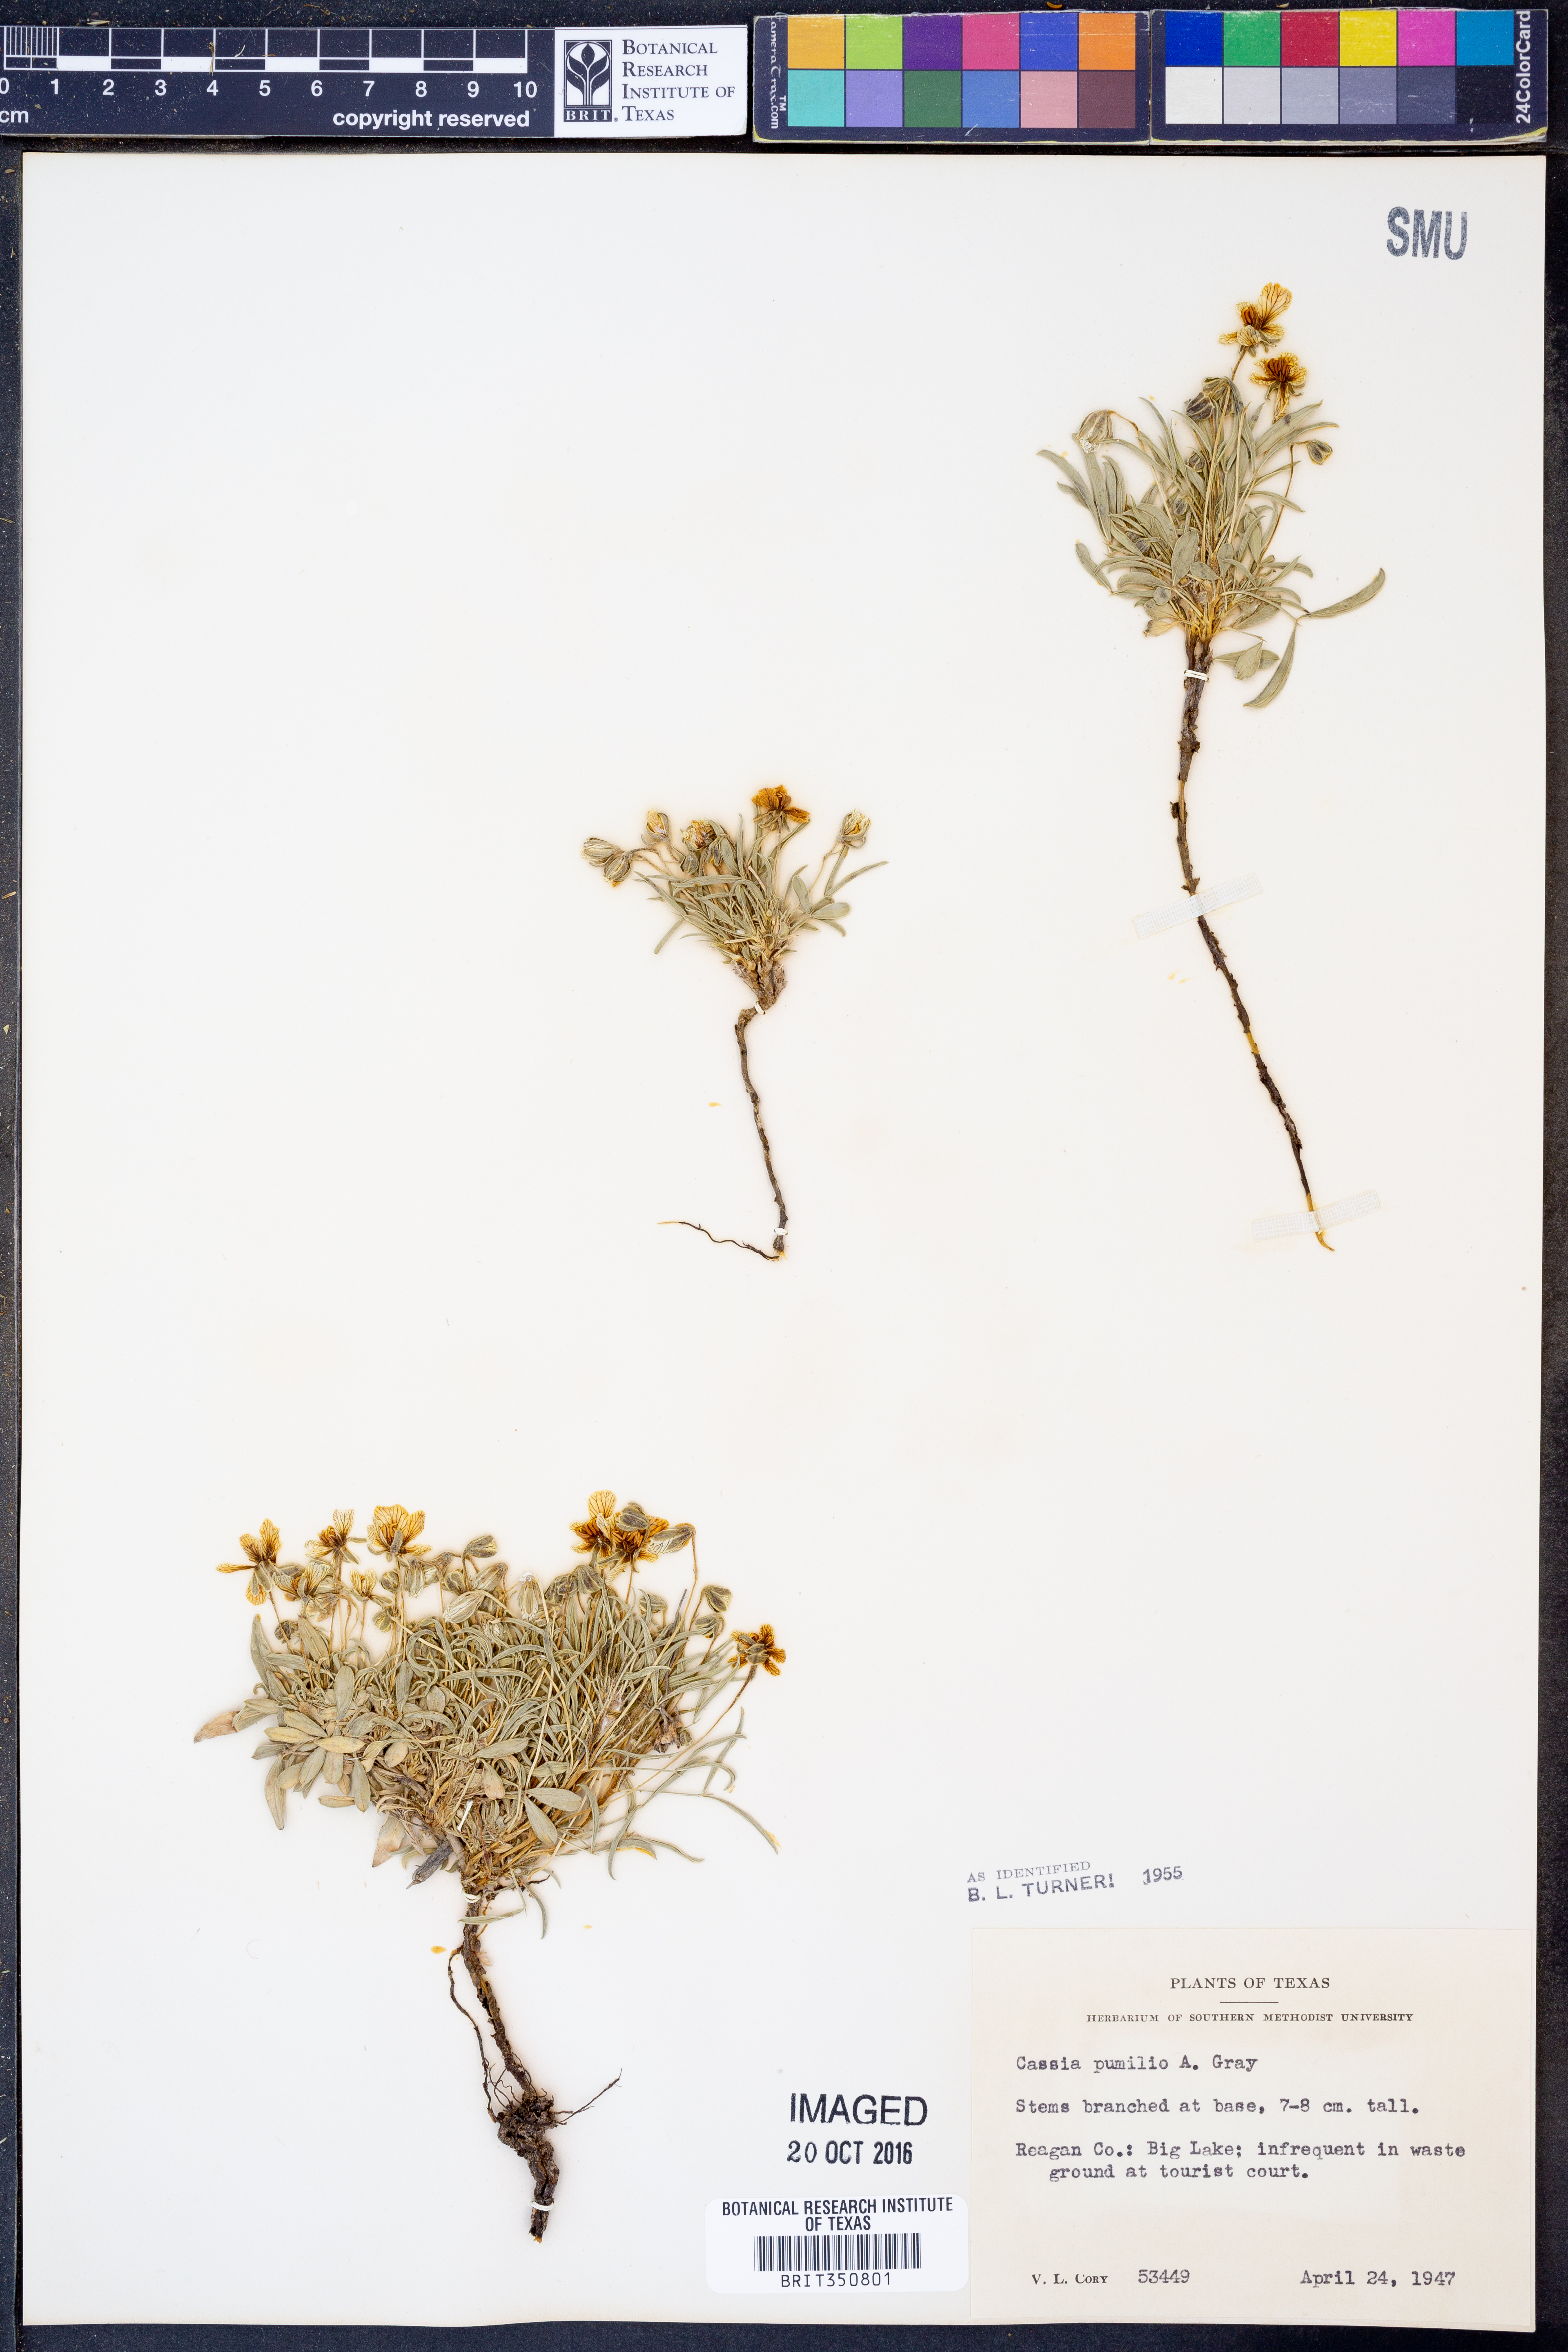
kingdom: Plantae
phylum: Tracheophyta
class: Magnoliopsida
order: Fabales
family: Fabaceae
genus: Senna
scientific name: Senna pumilio
